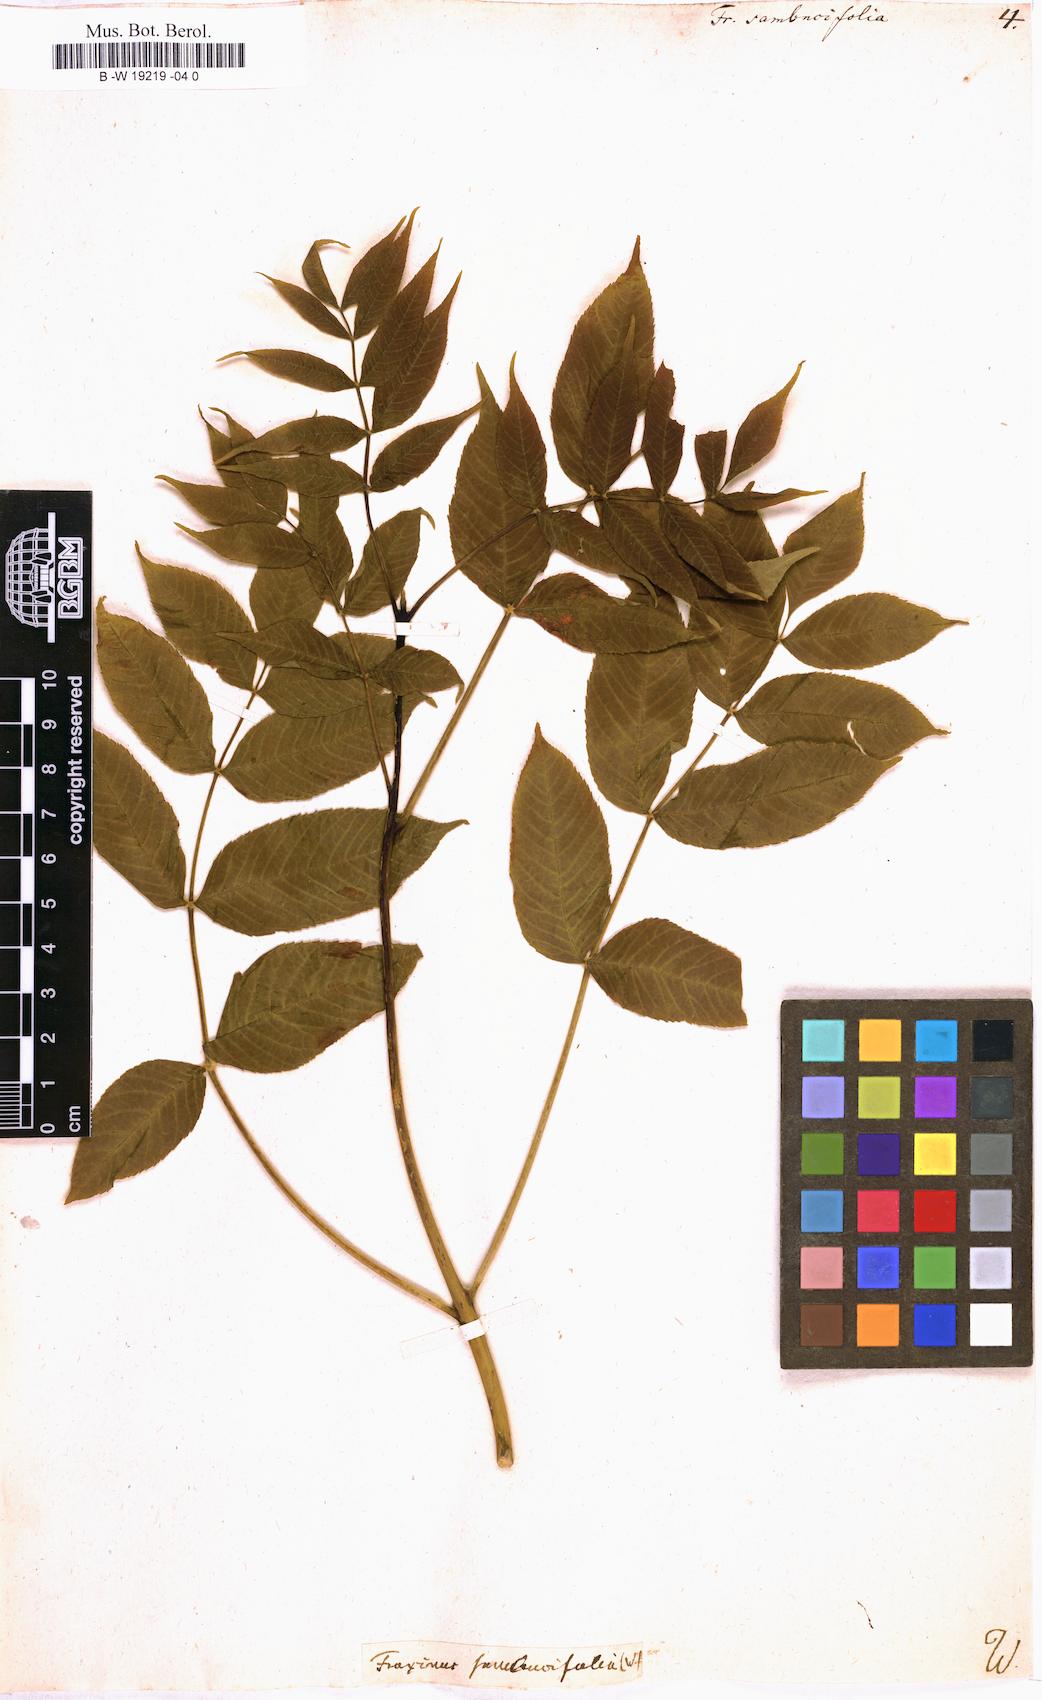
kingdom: Plantae
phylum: Tracheophyta
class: Magnoliopsida
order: Lamiales
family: Oleaceae
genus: Fraxinus
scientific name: Fraxinus nigra
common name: Black ash
